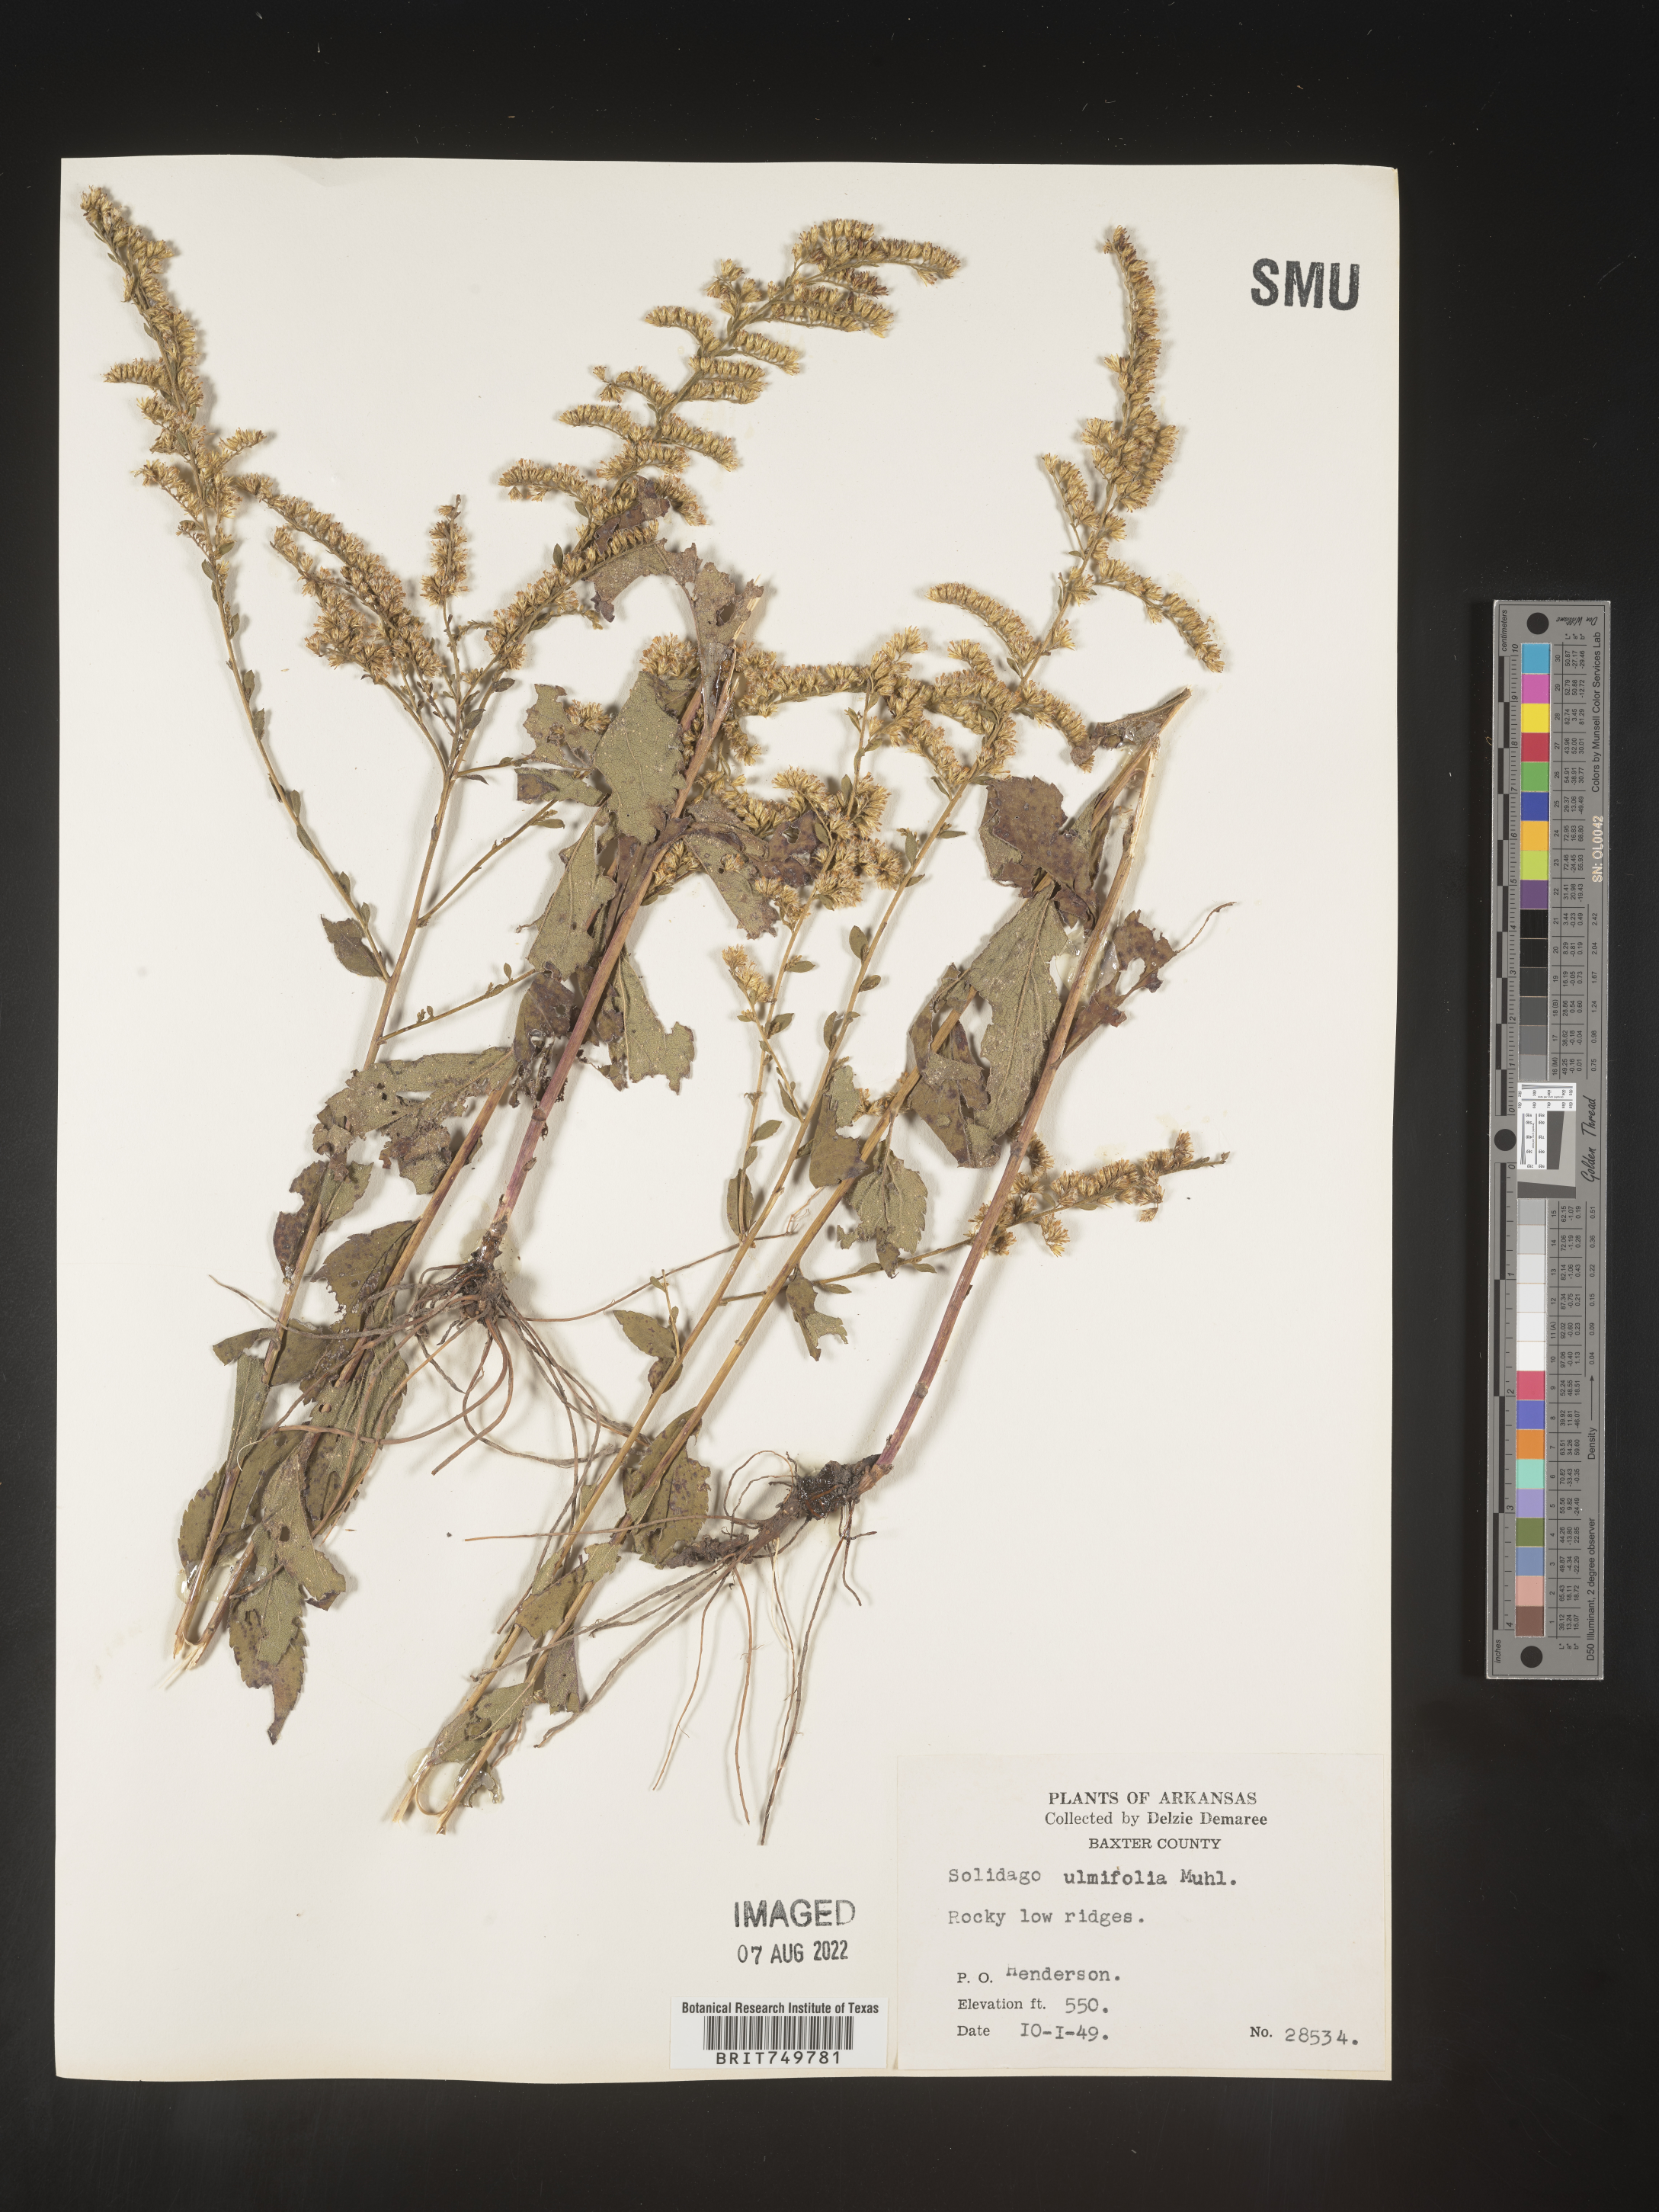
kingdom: Plantae
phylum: Tracheophyta
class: Magnoliopsida
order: Asterales
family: Asteraceae
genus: Solidago
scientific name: Solidago ulmifolia
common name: Elm-leaf goldenrod
